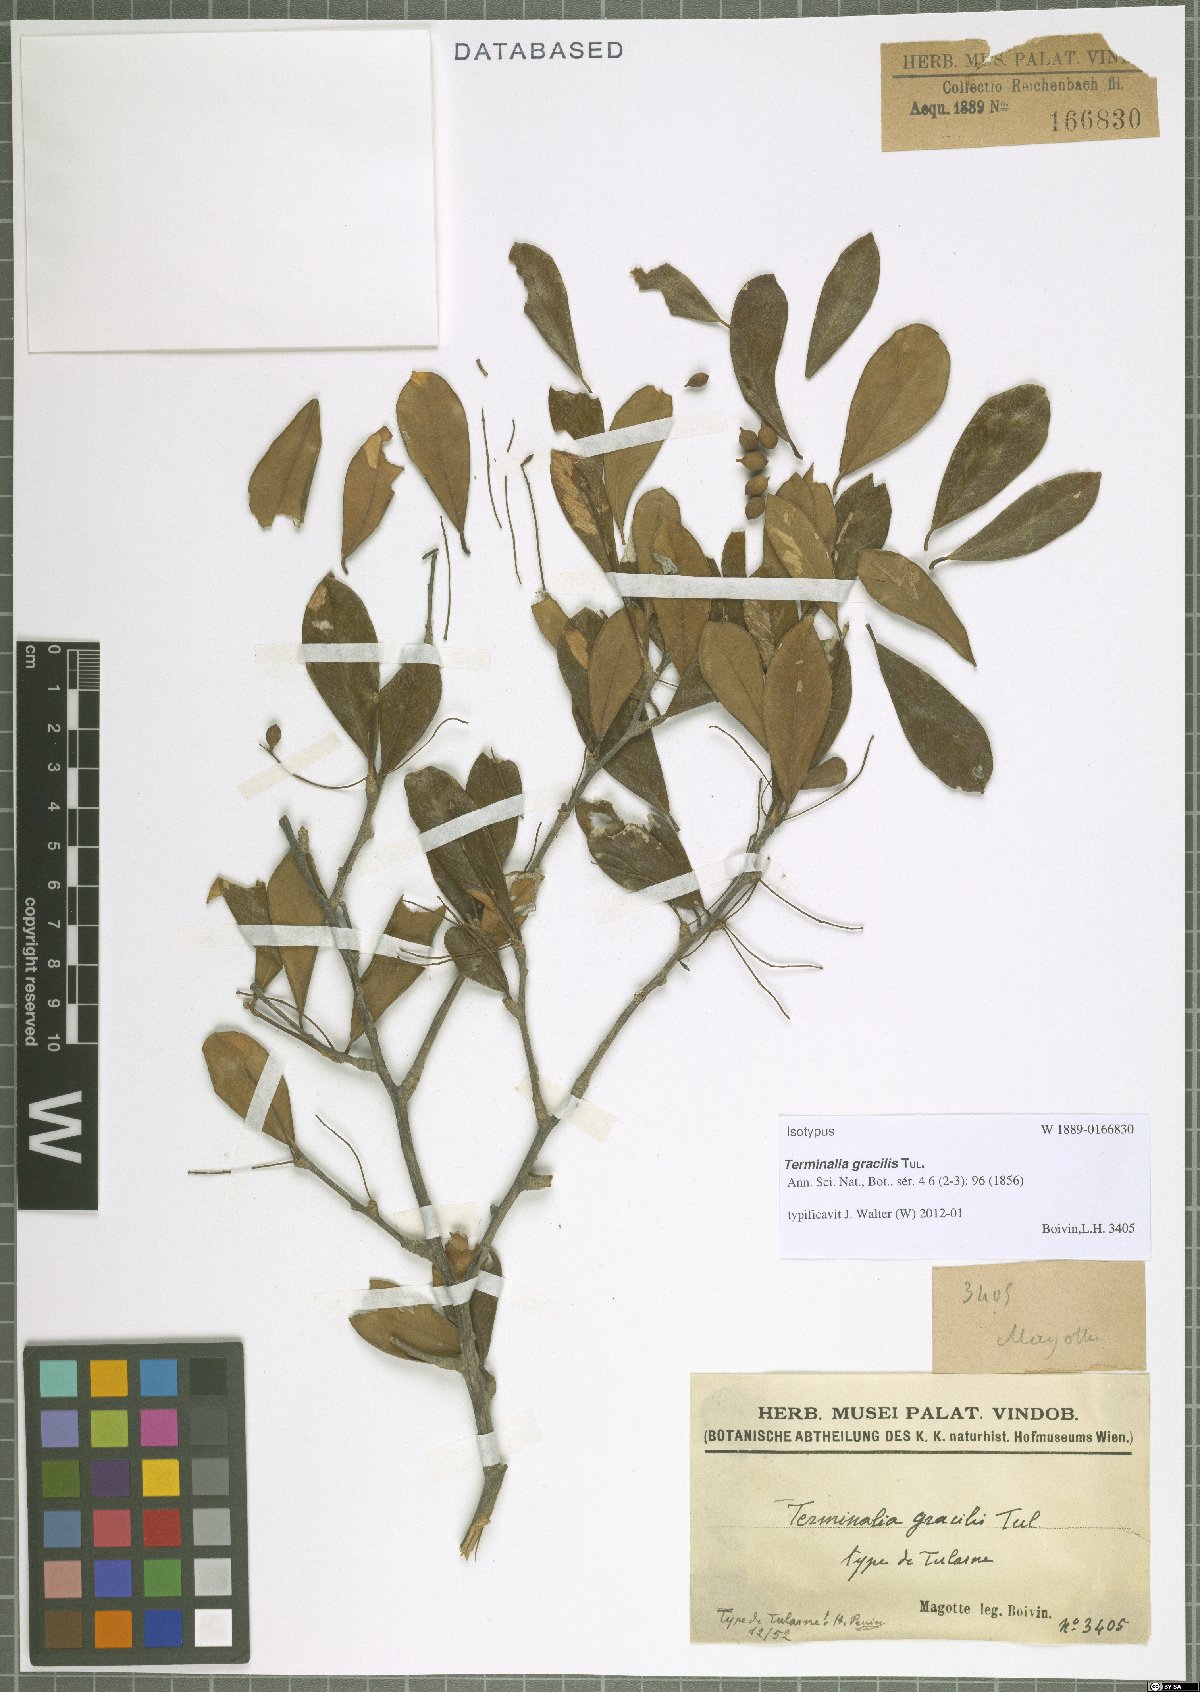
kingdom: Plantae
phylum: Tracheophyta
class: Magnoliopsida
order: Myrtales
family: Combretaceae
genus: Terminalia
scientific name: Terminalia gracilis
